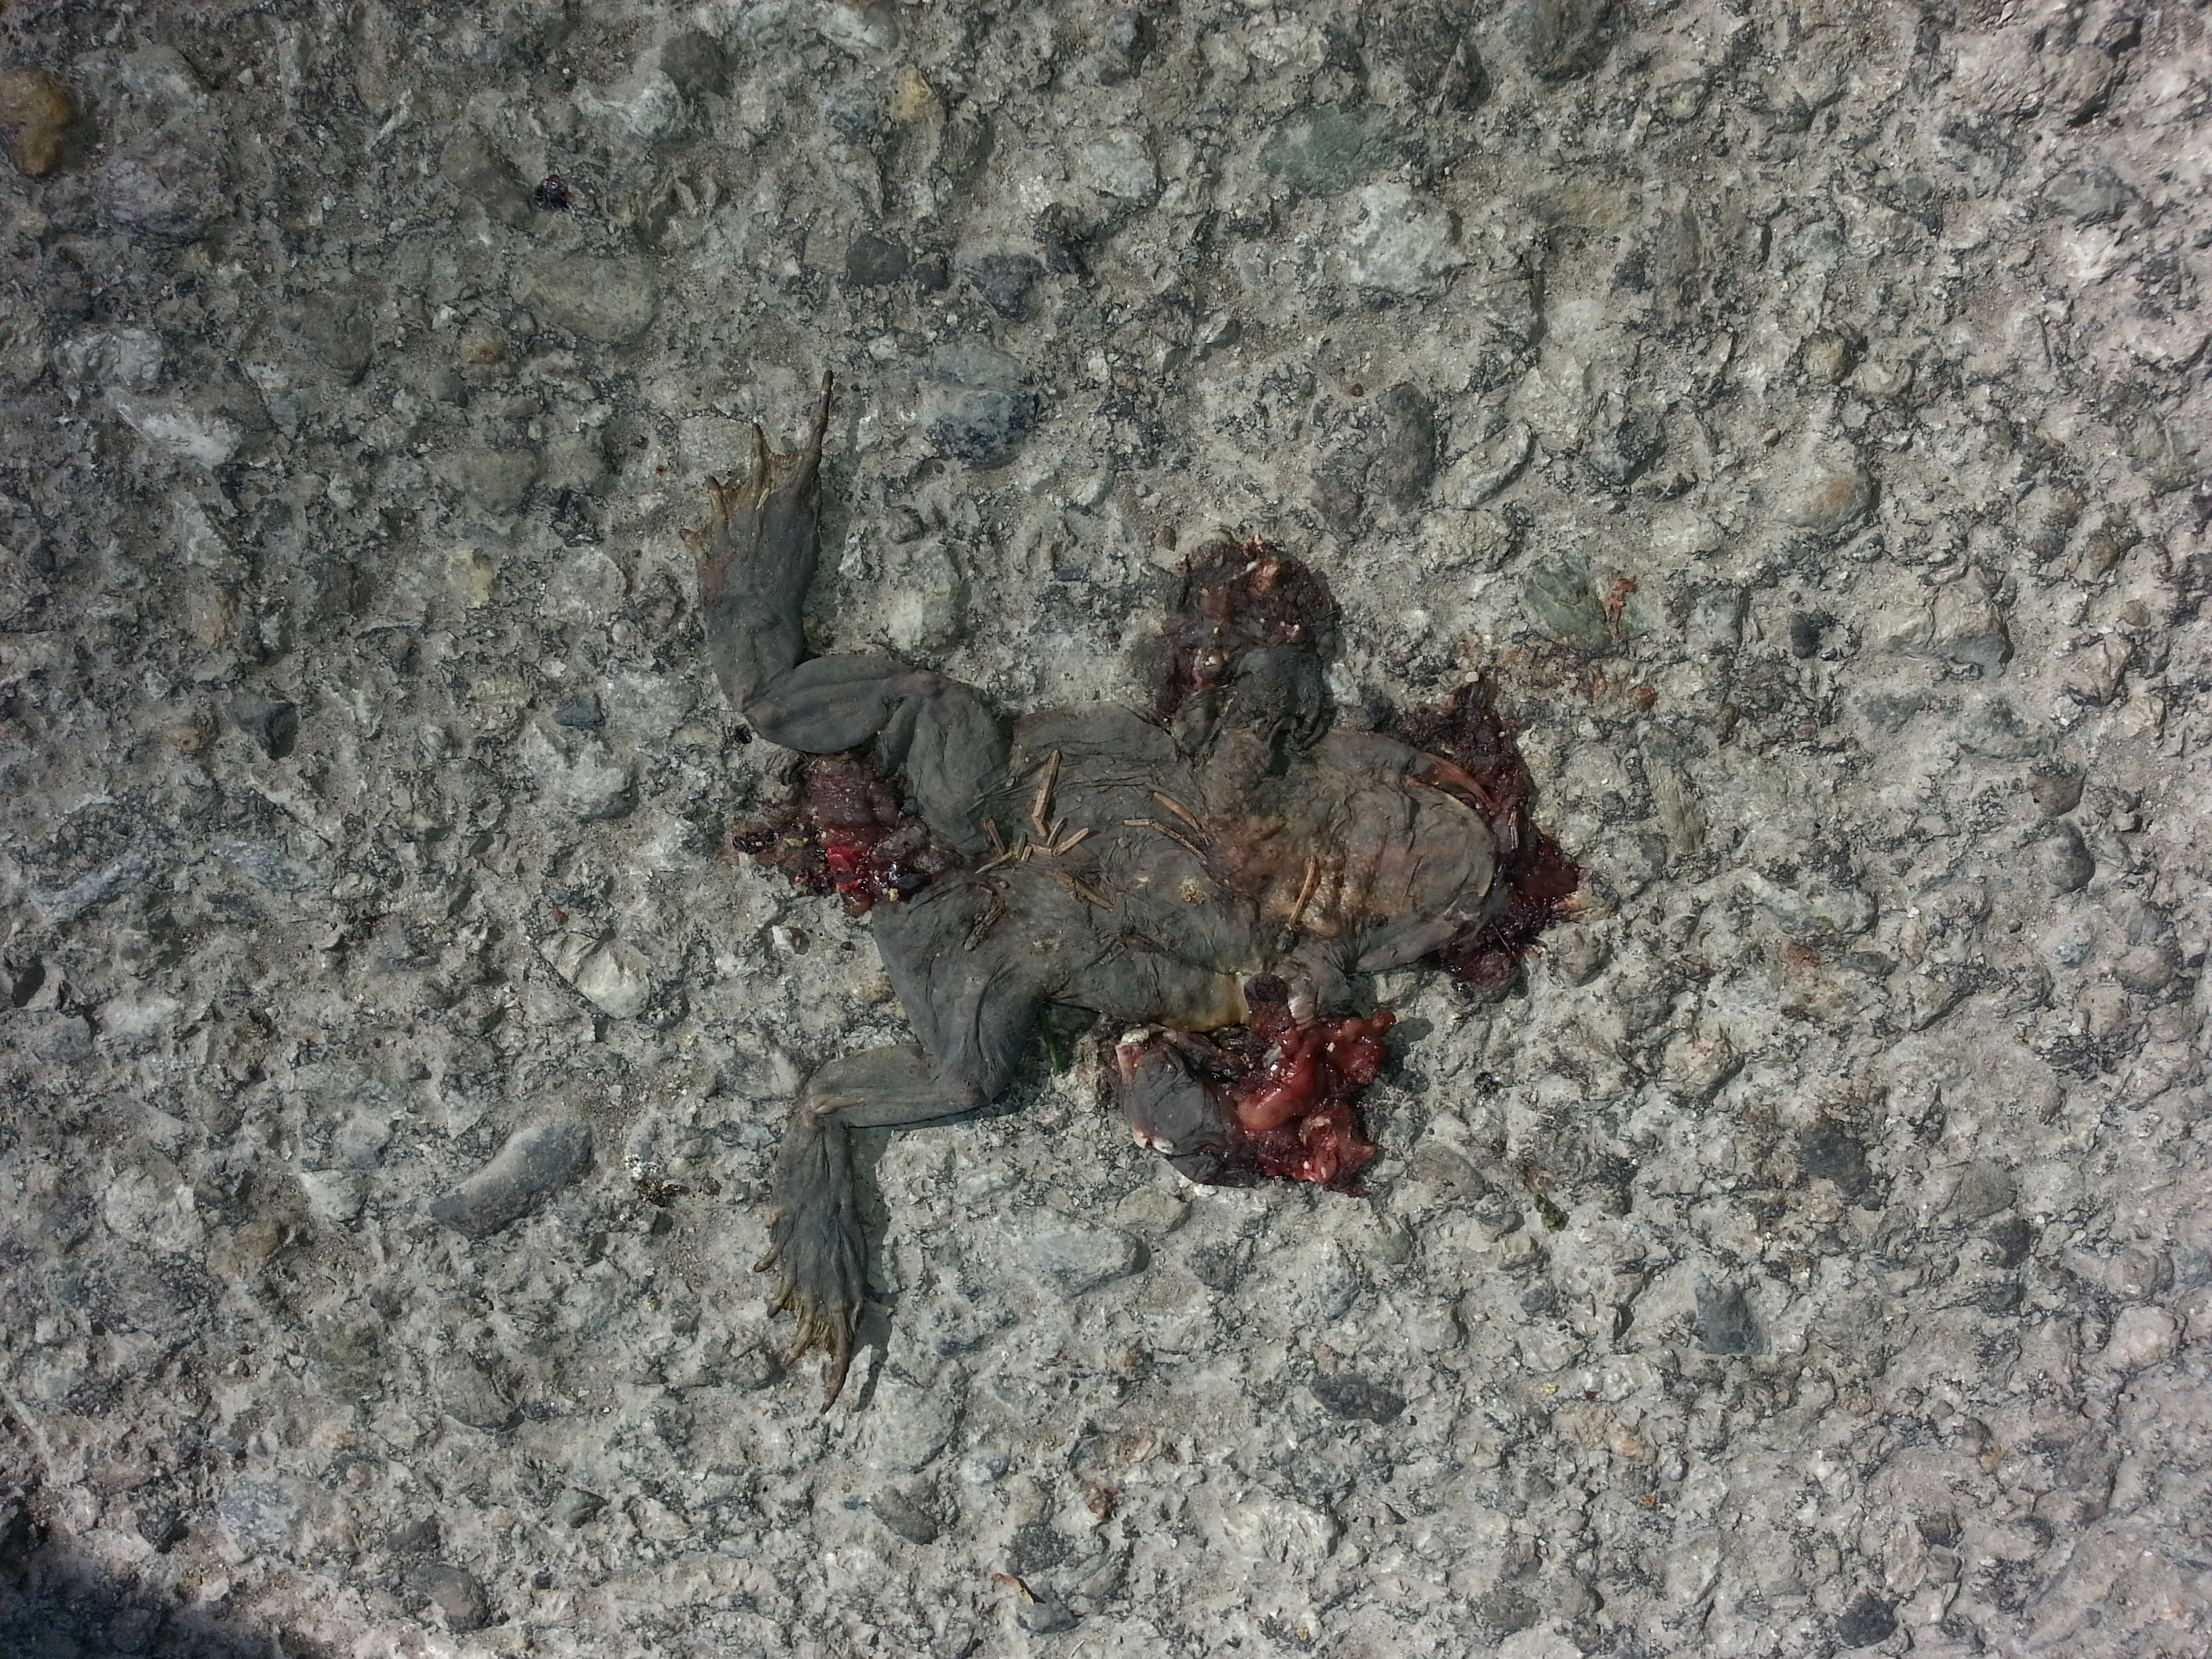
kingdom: Animalia
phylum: Chordata
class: Amphibia
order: Anura
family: Bufonidae
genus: Bufo
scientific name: Bufo bufo
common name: Common toad
